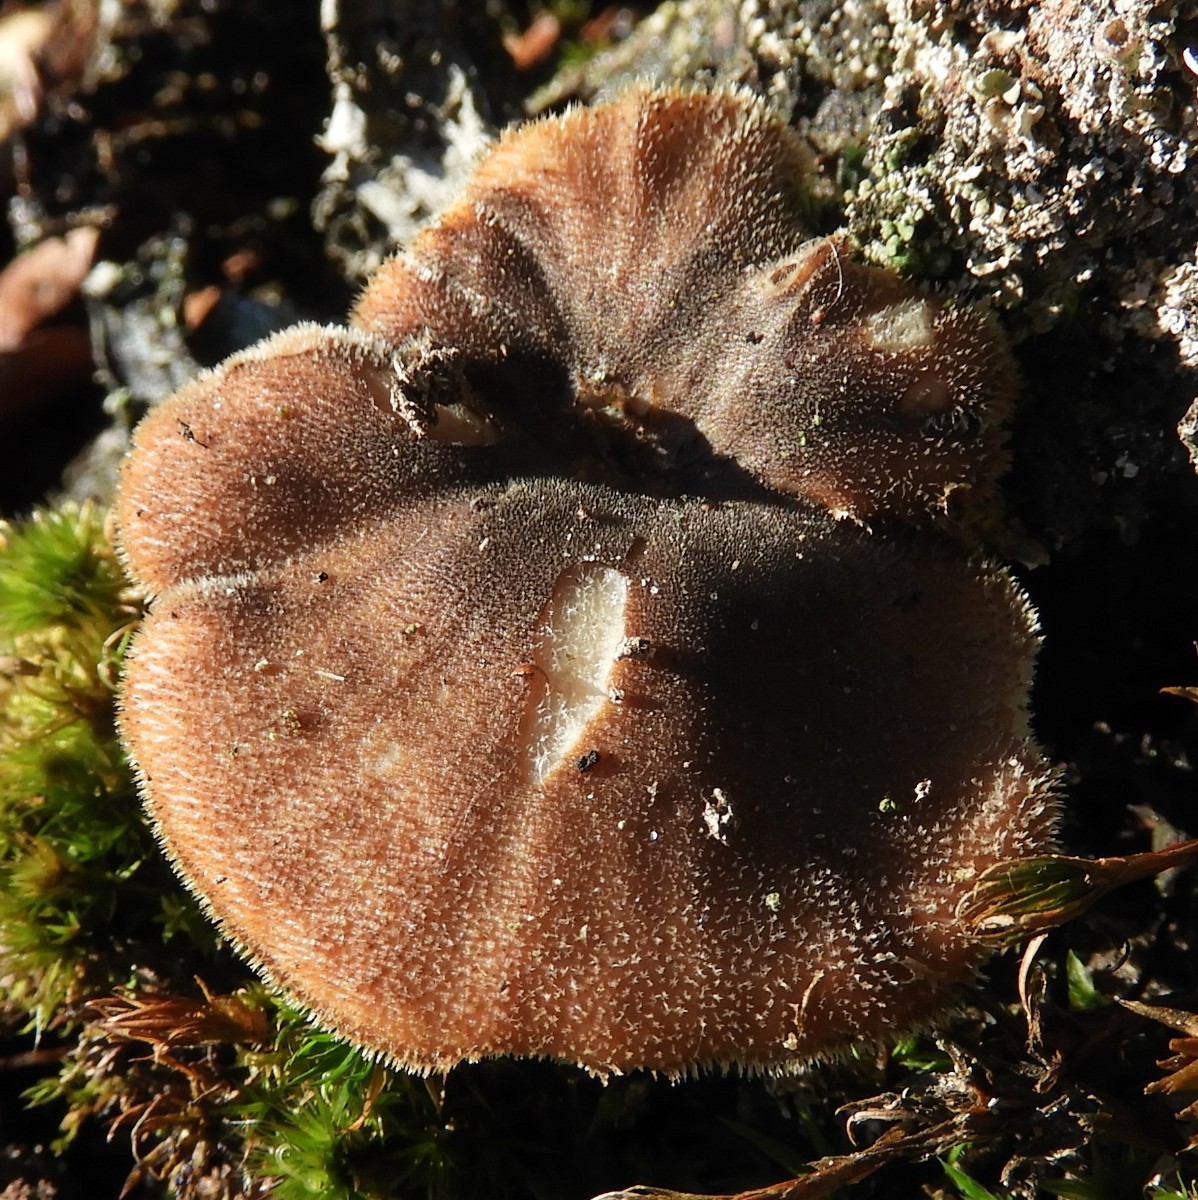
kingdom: Fungi
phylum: Basidiomycota
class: Agaricomycetes
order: Polyporales
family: Polyporaceae
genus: Lentinus
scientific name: Lentinus brumalis
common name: vinter-stilkporesvamp
